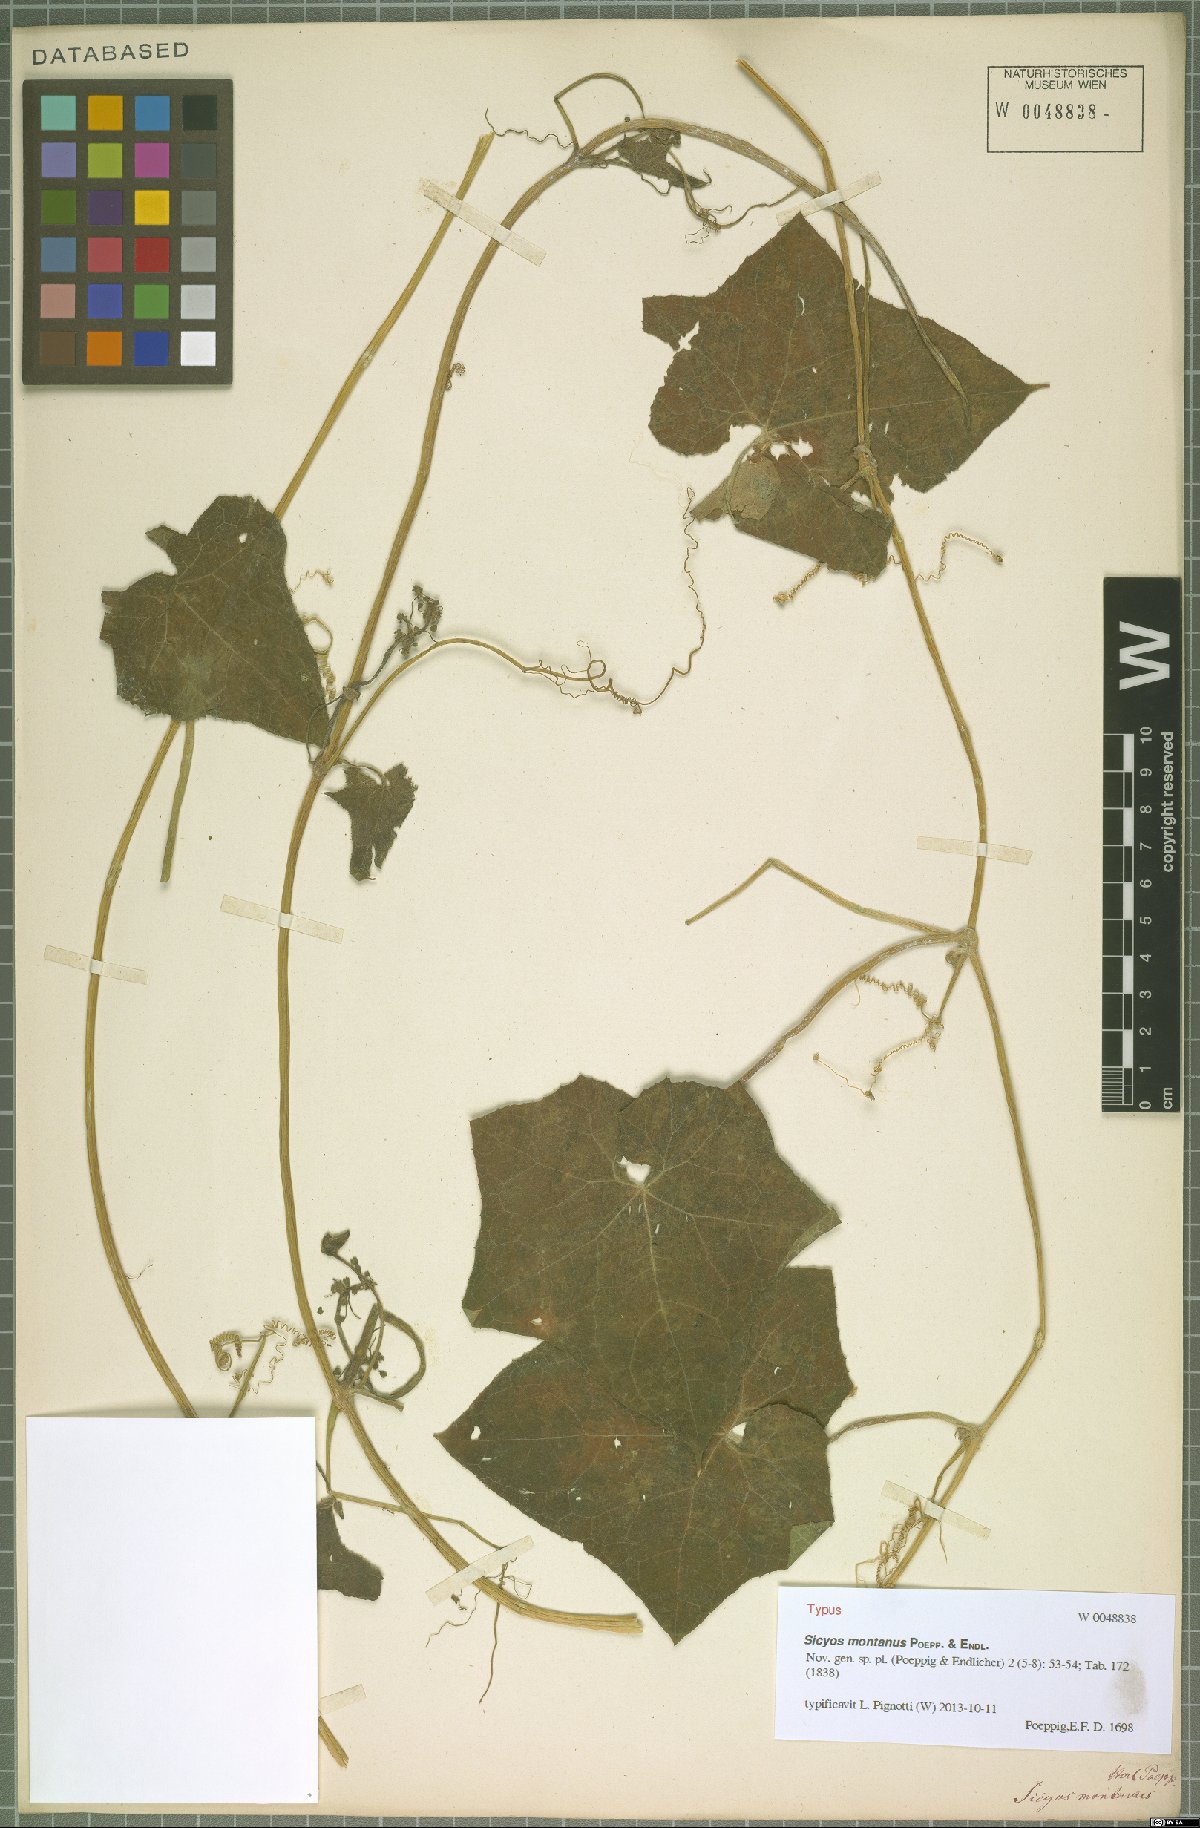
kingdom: Plantae
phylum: Tracheophyta
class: Magnoliopsida
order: Cucurbitales
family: Cucurbitaceae
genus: Sicyos
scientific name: Sicyos montanus
